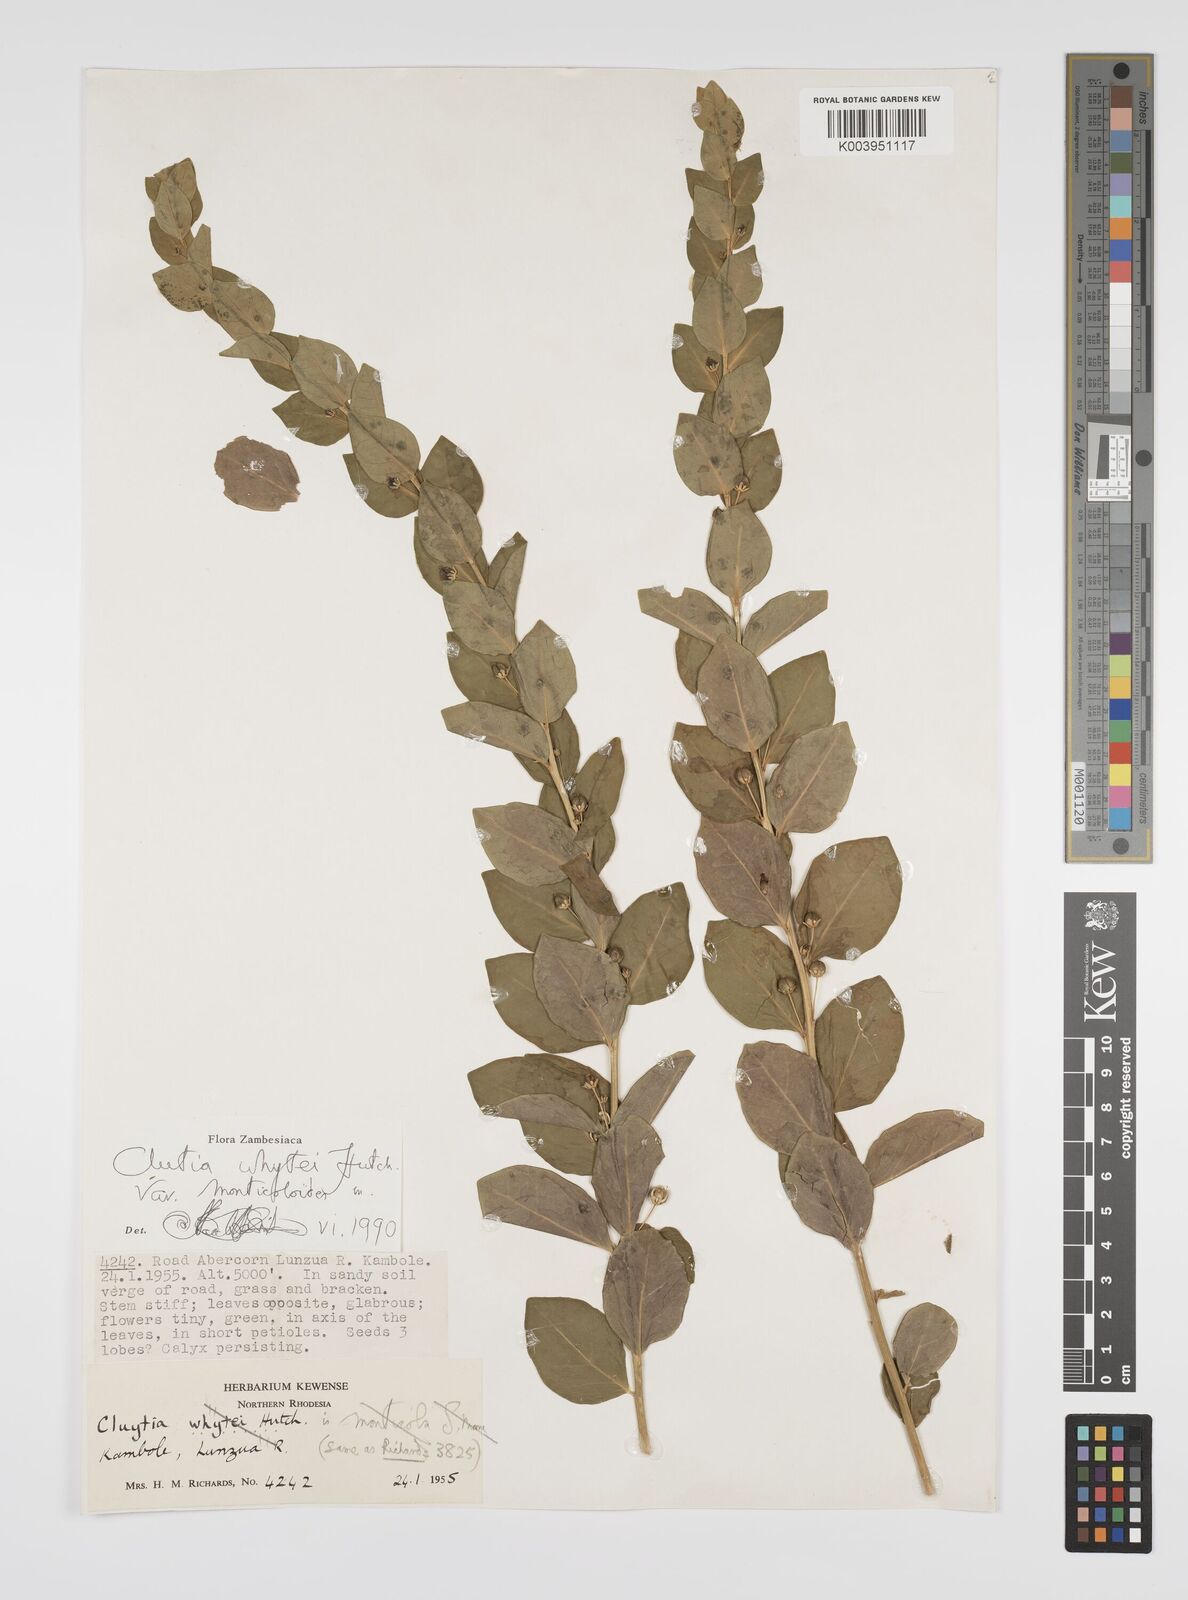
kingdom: Plantae
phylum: Tracheophyta
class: Magnoliopsida
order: Malpighiales
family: Peraceae
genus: Clutia
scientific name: Clutia whytei
